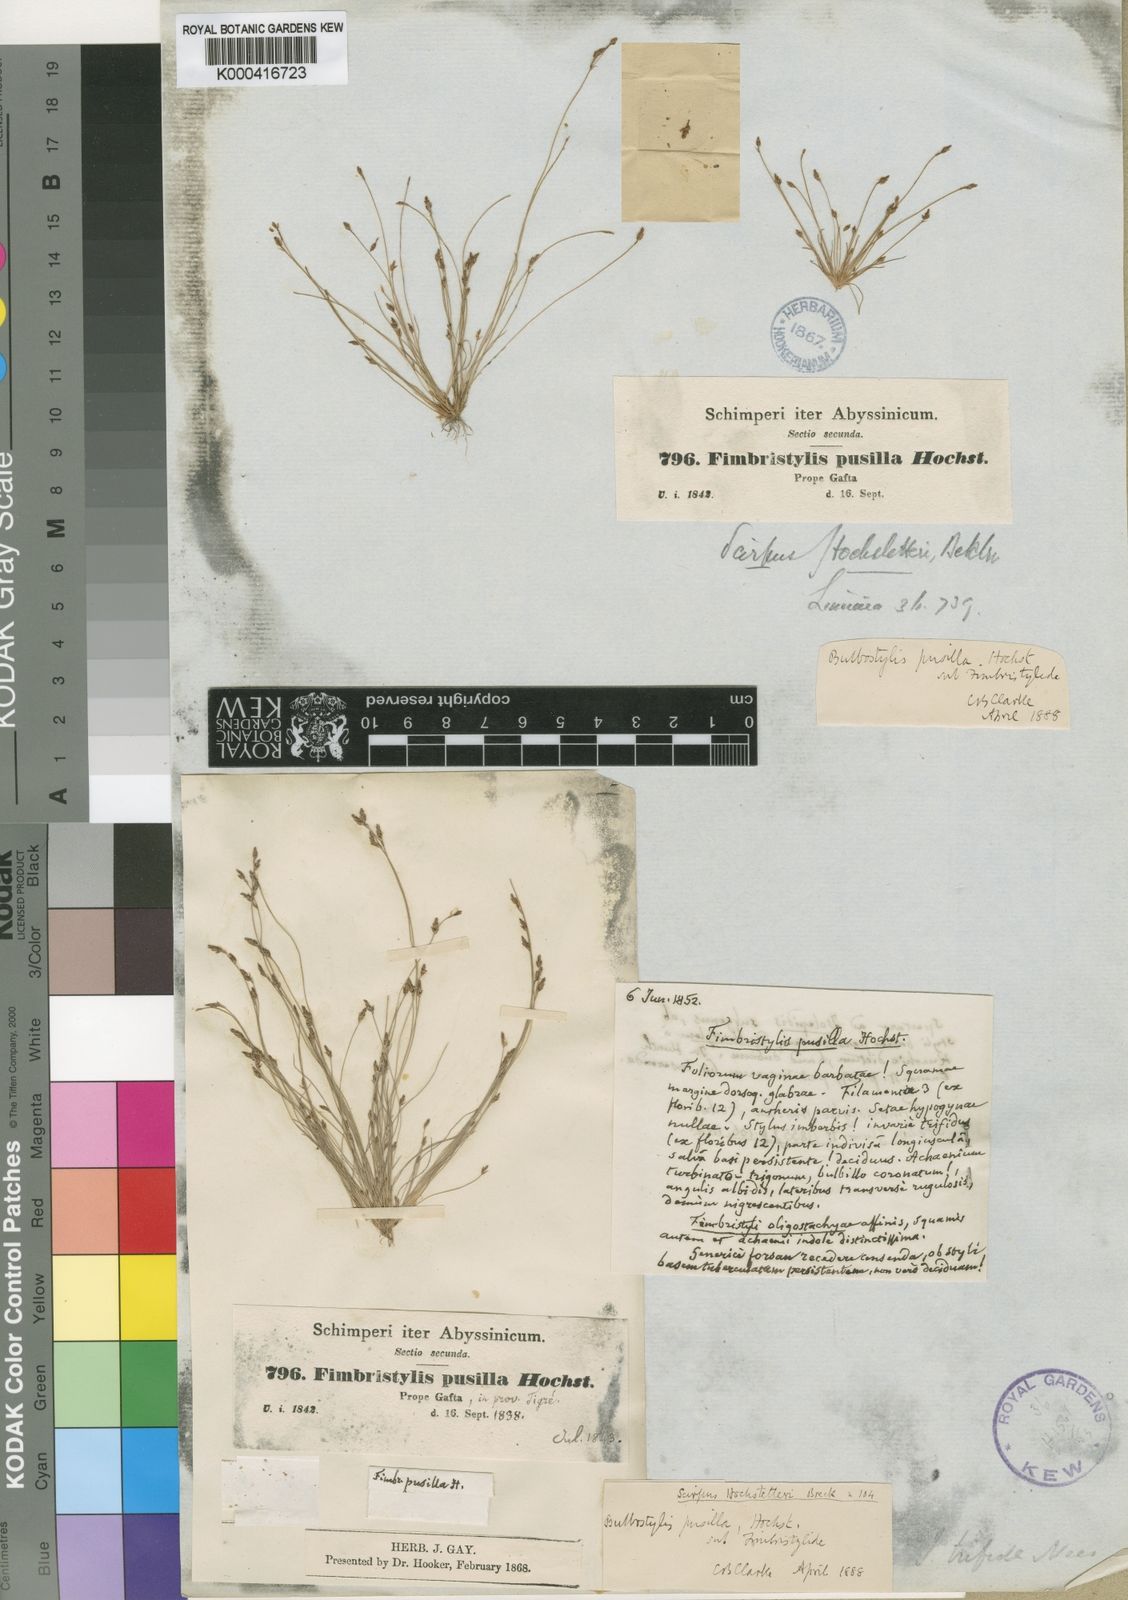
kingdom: Plantae
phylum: Tracheophyta
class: Liliopsida
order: Poales
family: Cyperaceae
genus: Bulbostylis
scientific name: Bulbostylis pusilla
